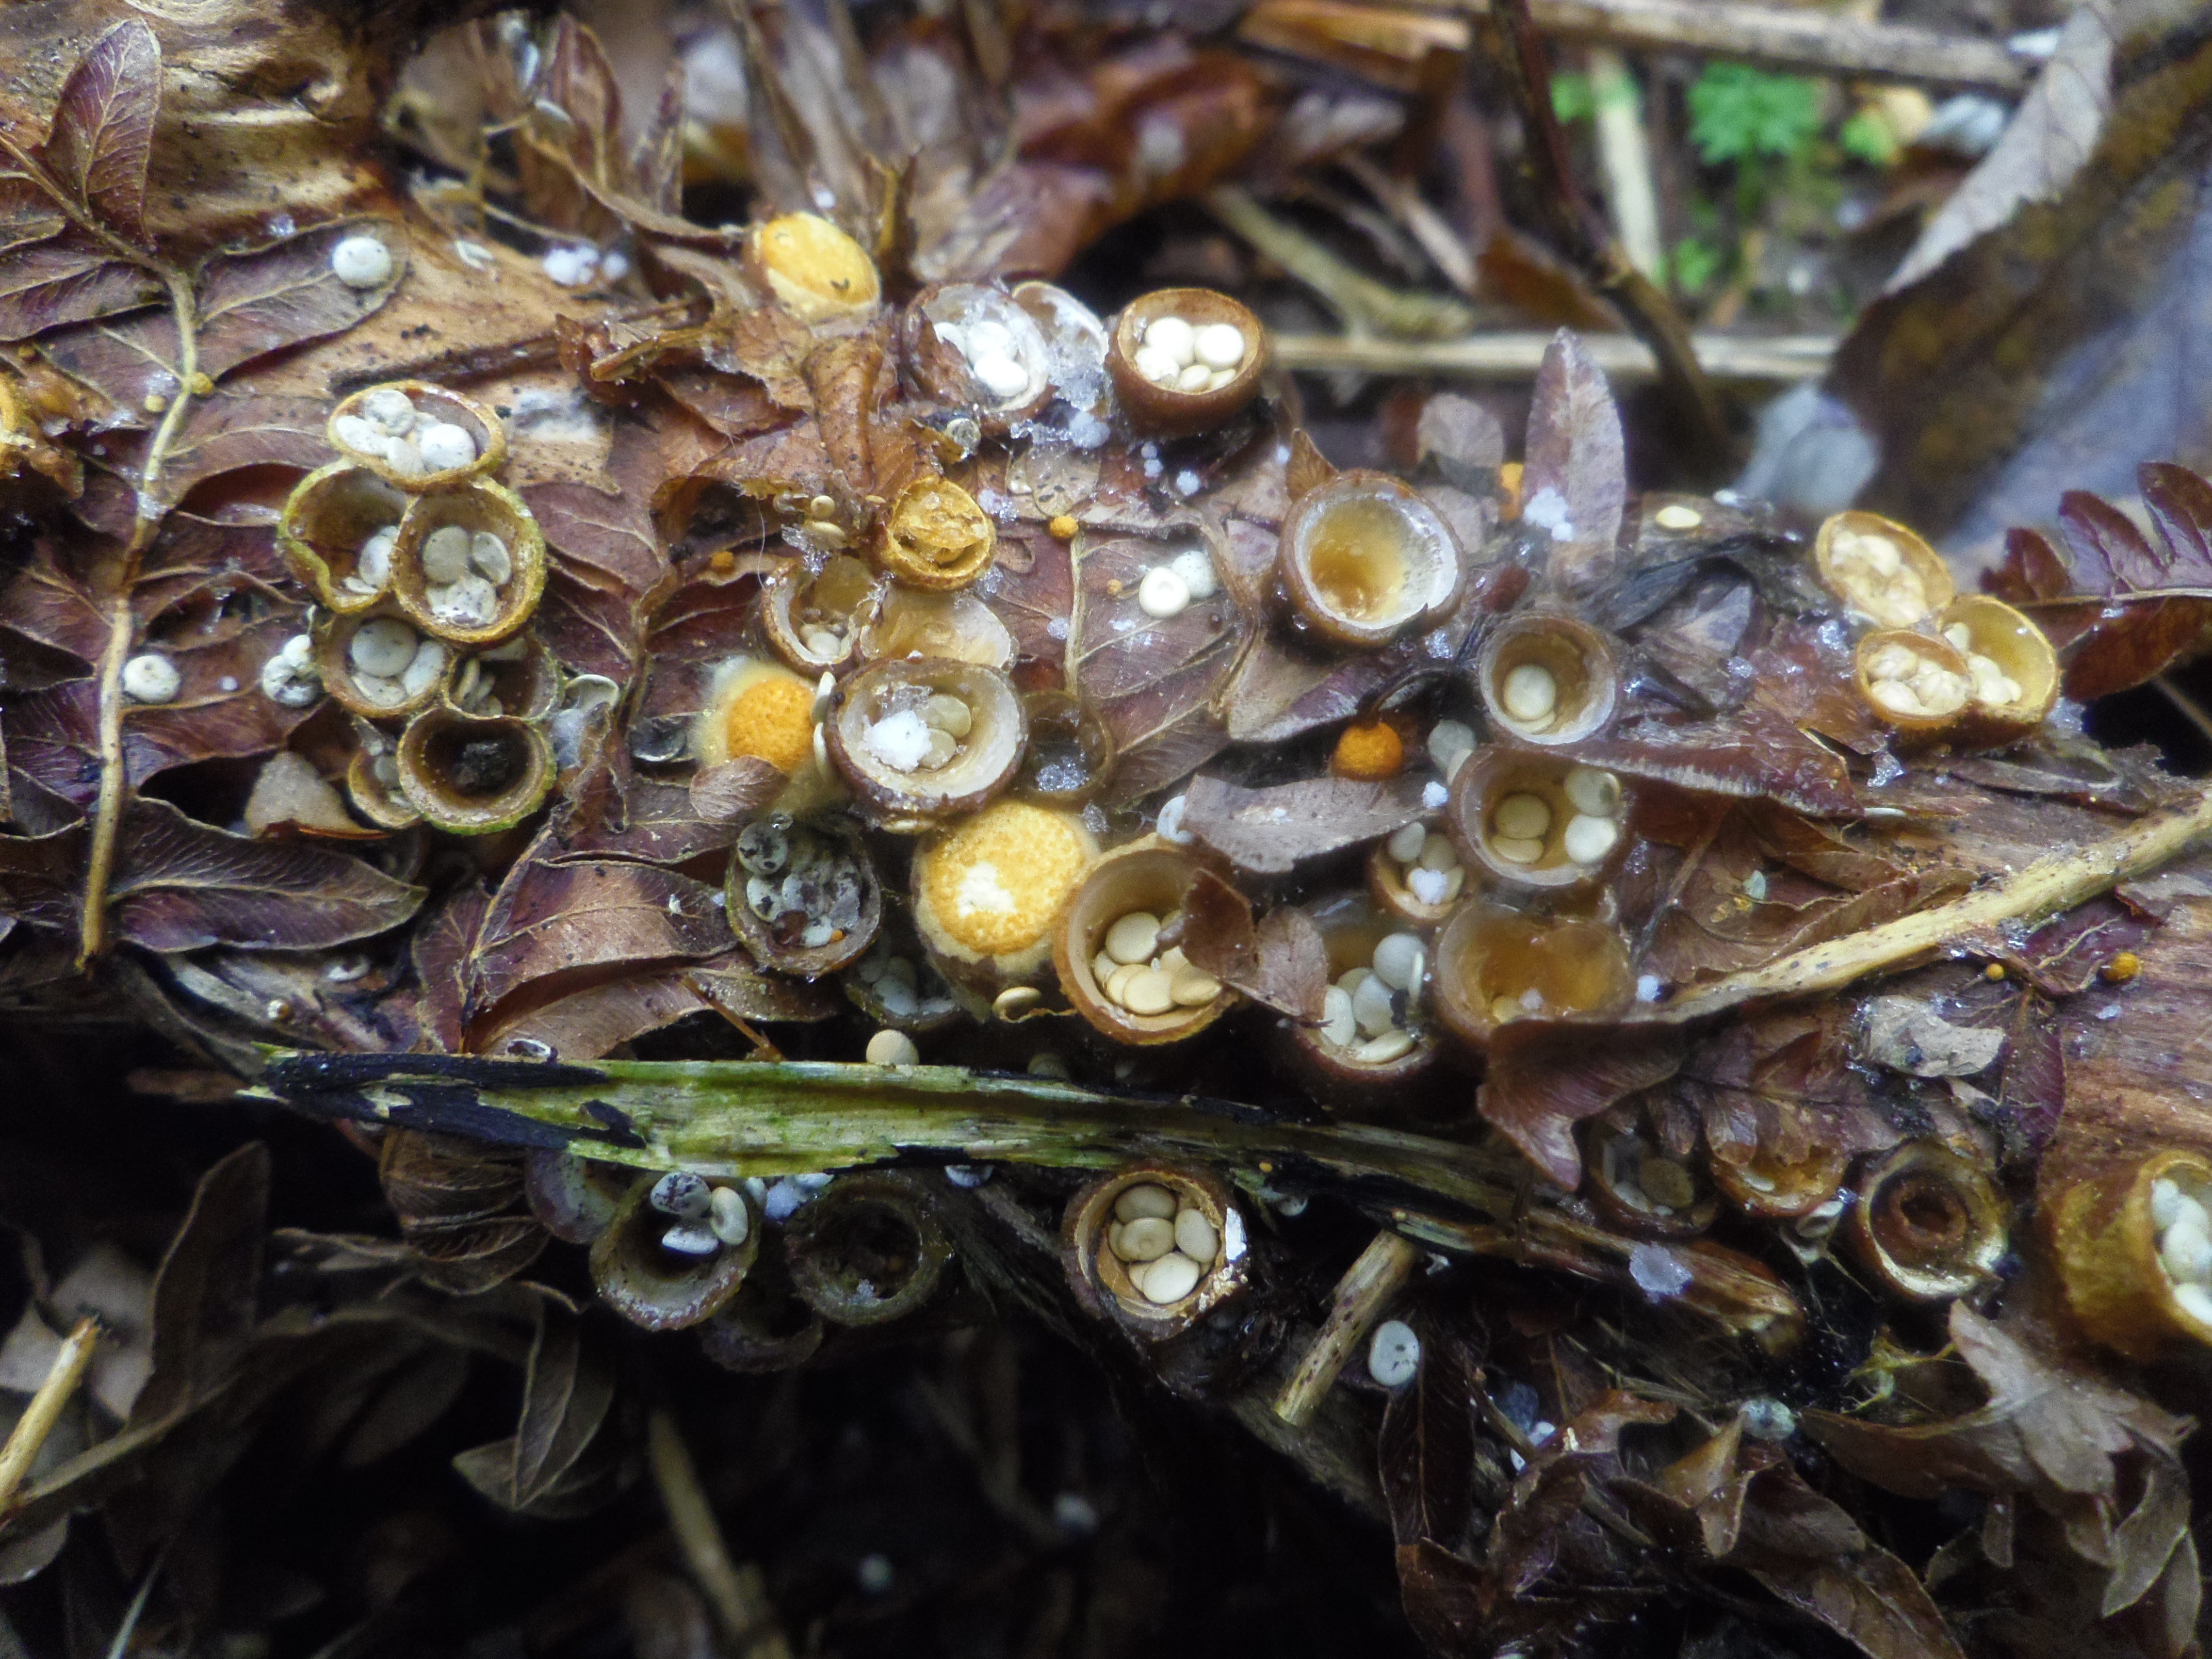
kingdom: Fungi
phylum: Basidiomycota
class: Agaricomycetes
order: Agaricales
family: Nidulariaceae
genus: Crucibulum
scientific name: Crucibulum laeve
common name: Common bird's nest
